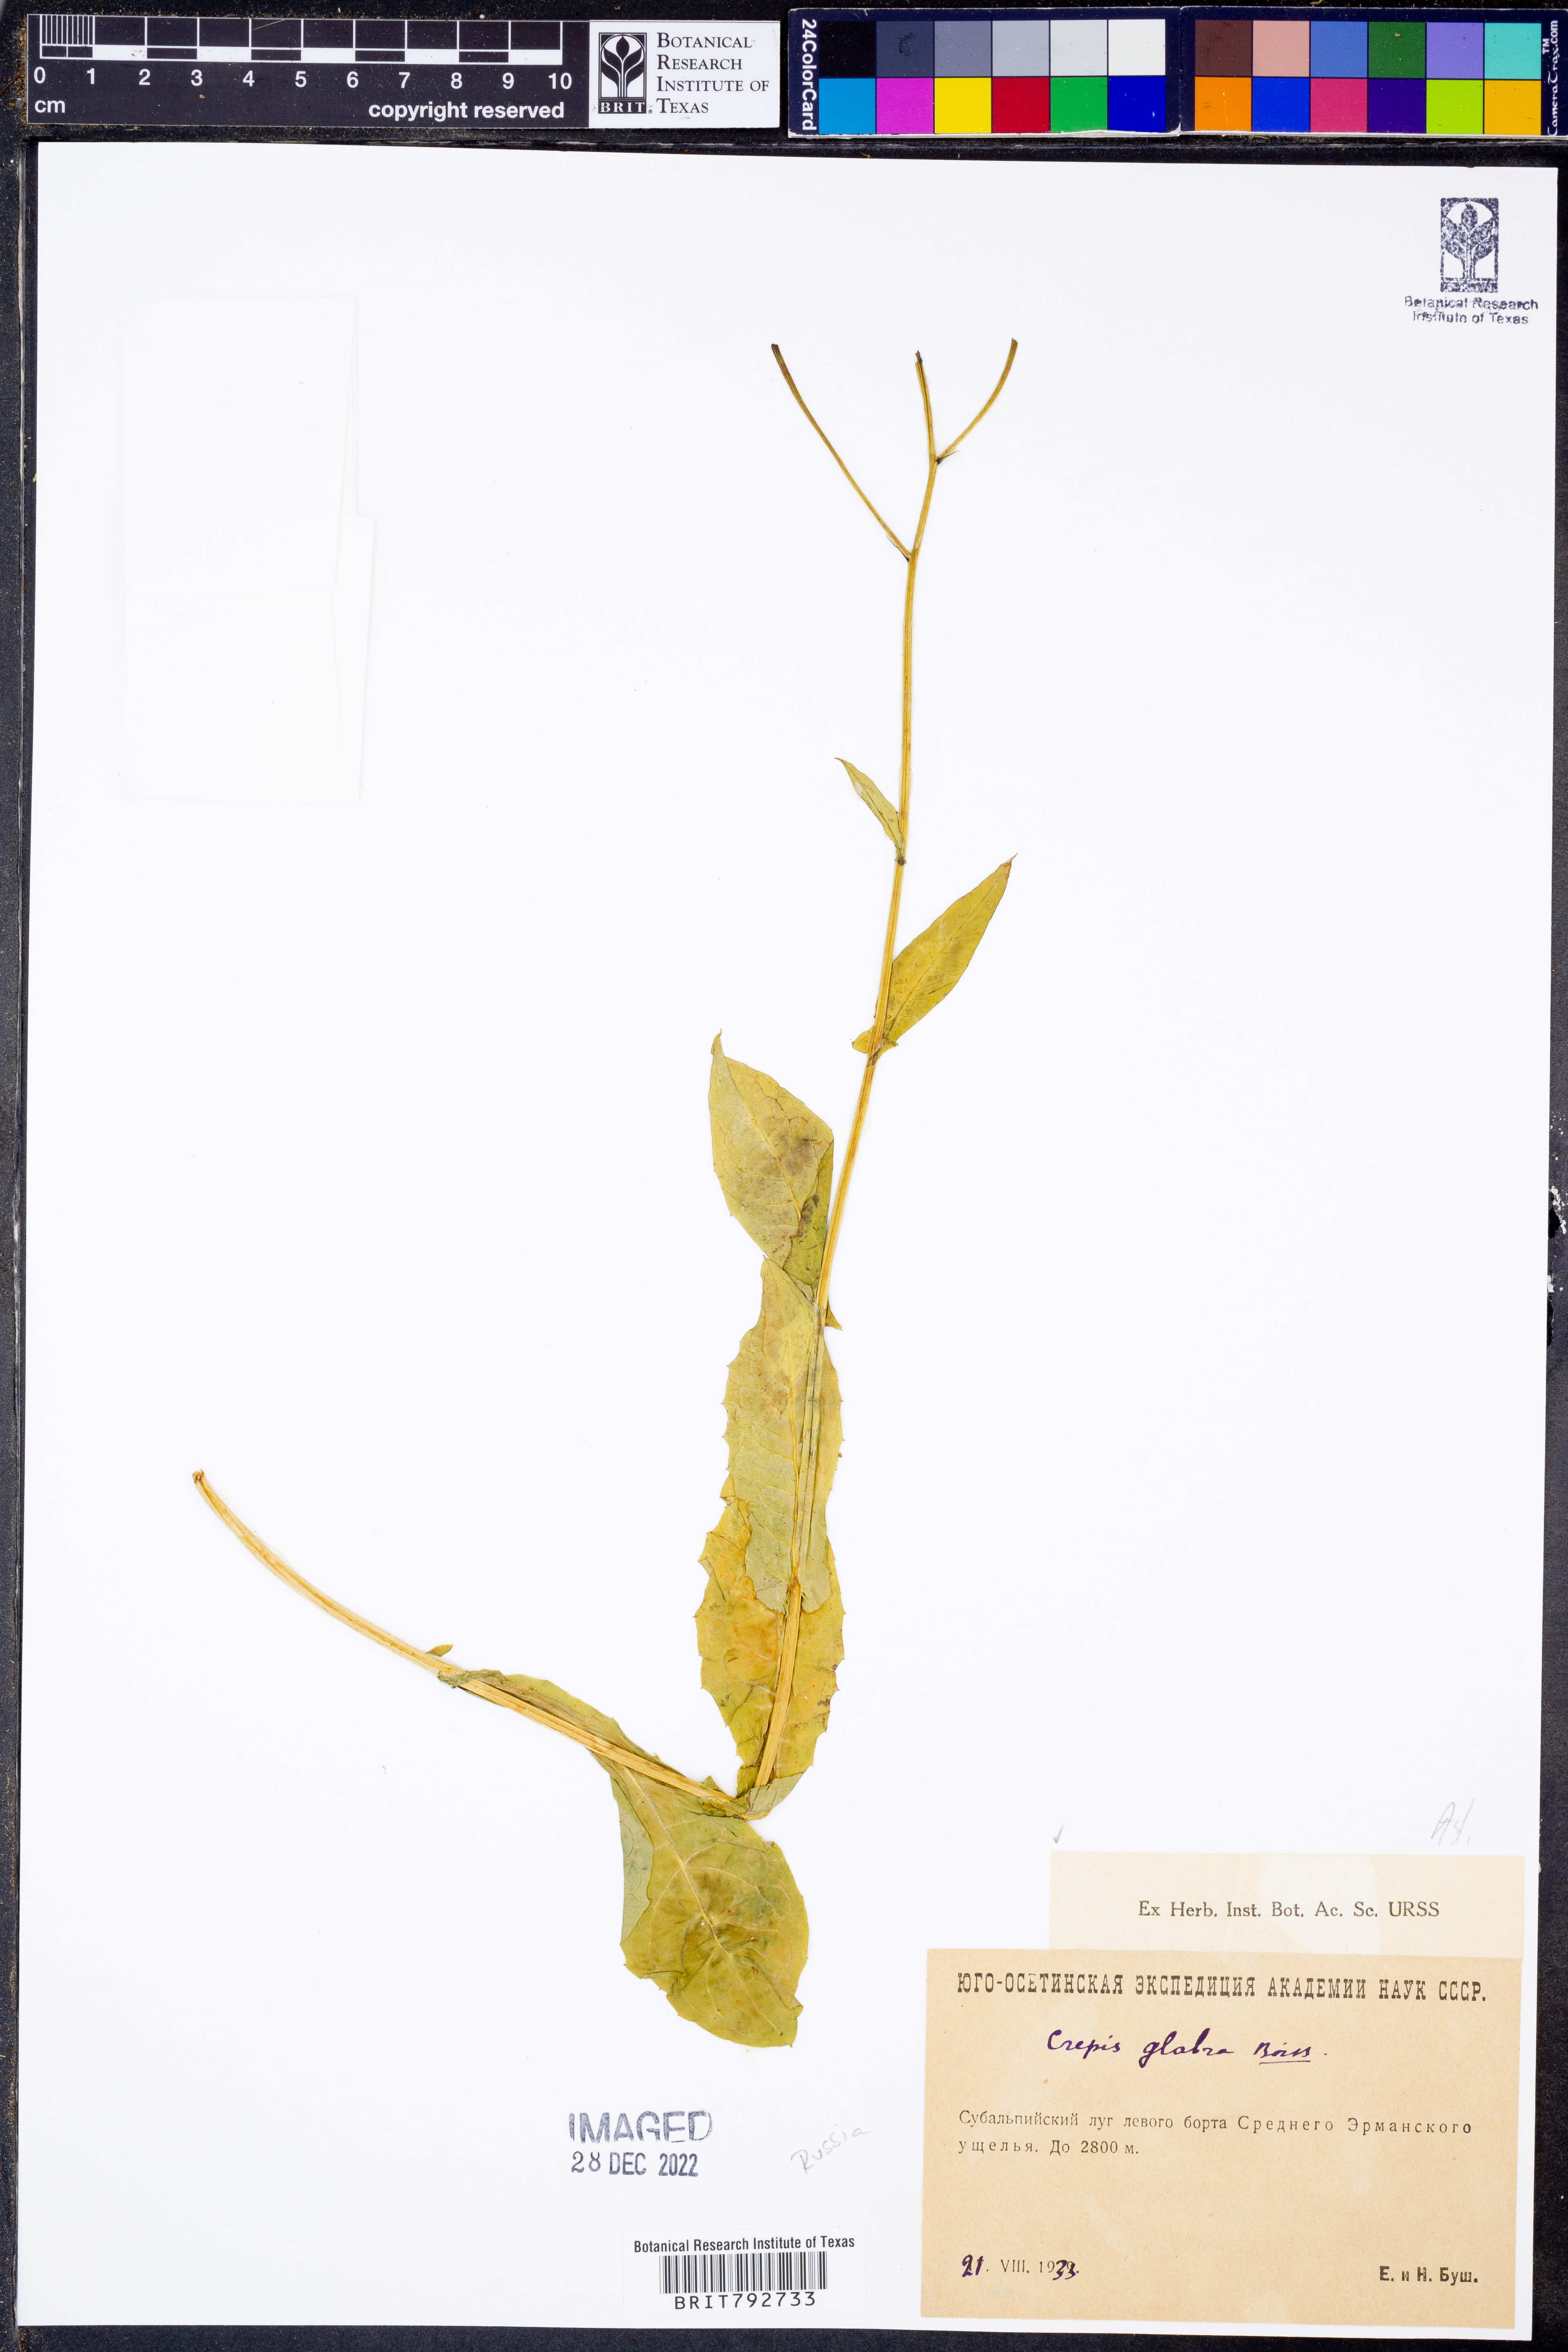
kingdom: Plantae
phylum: Tracheophyta
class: Magnoliopsida
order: Asterales
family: Asteraceae
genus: Crepis
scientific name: Crepis caucasica
